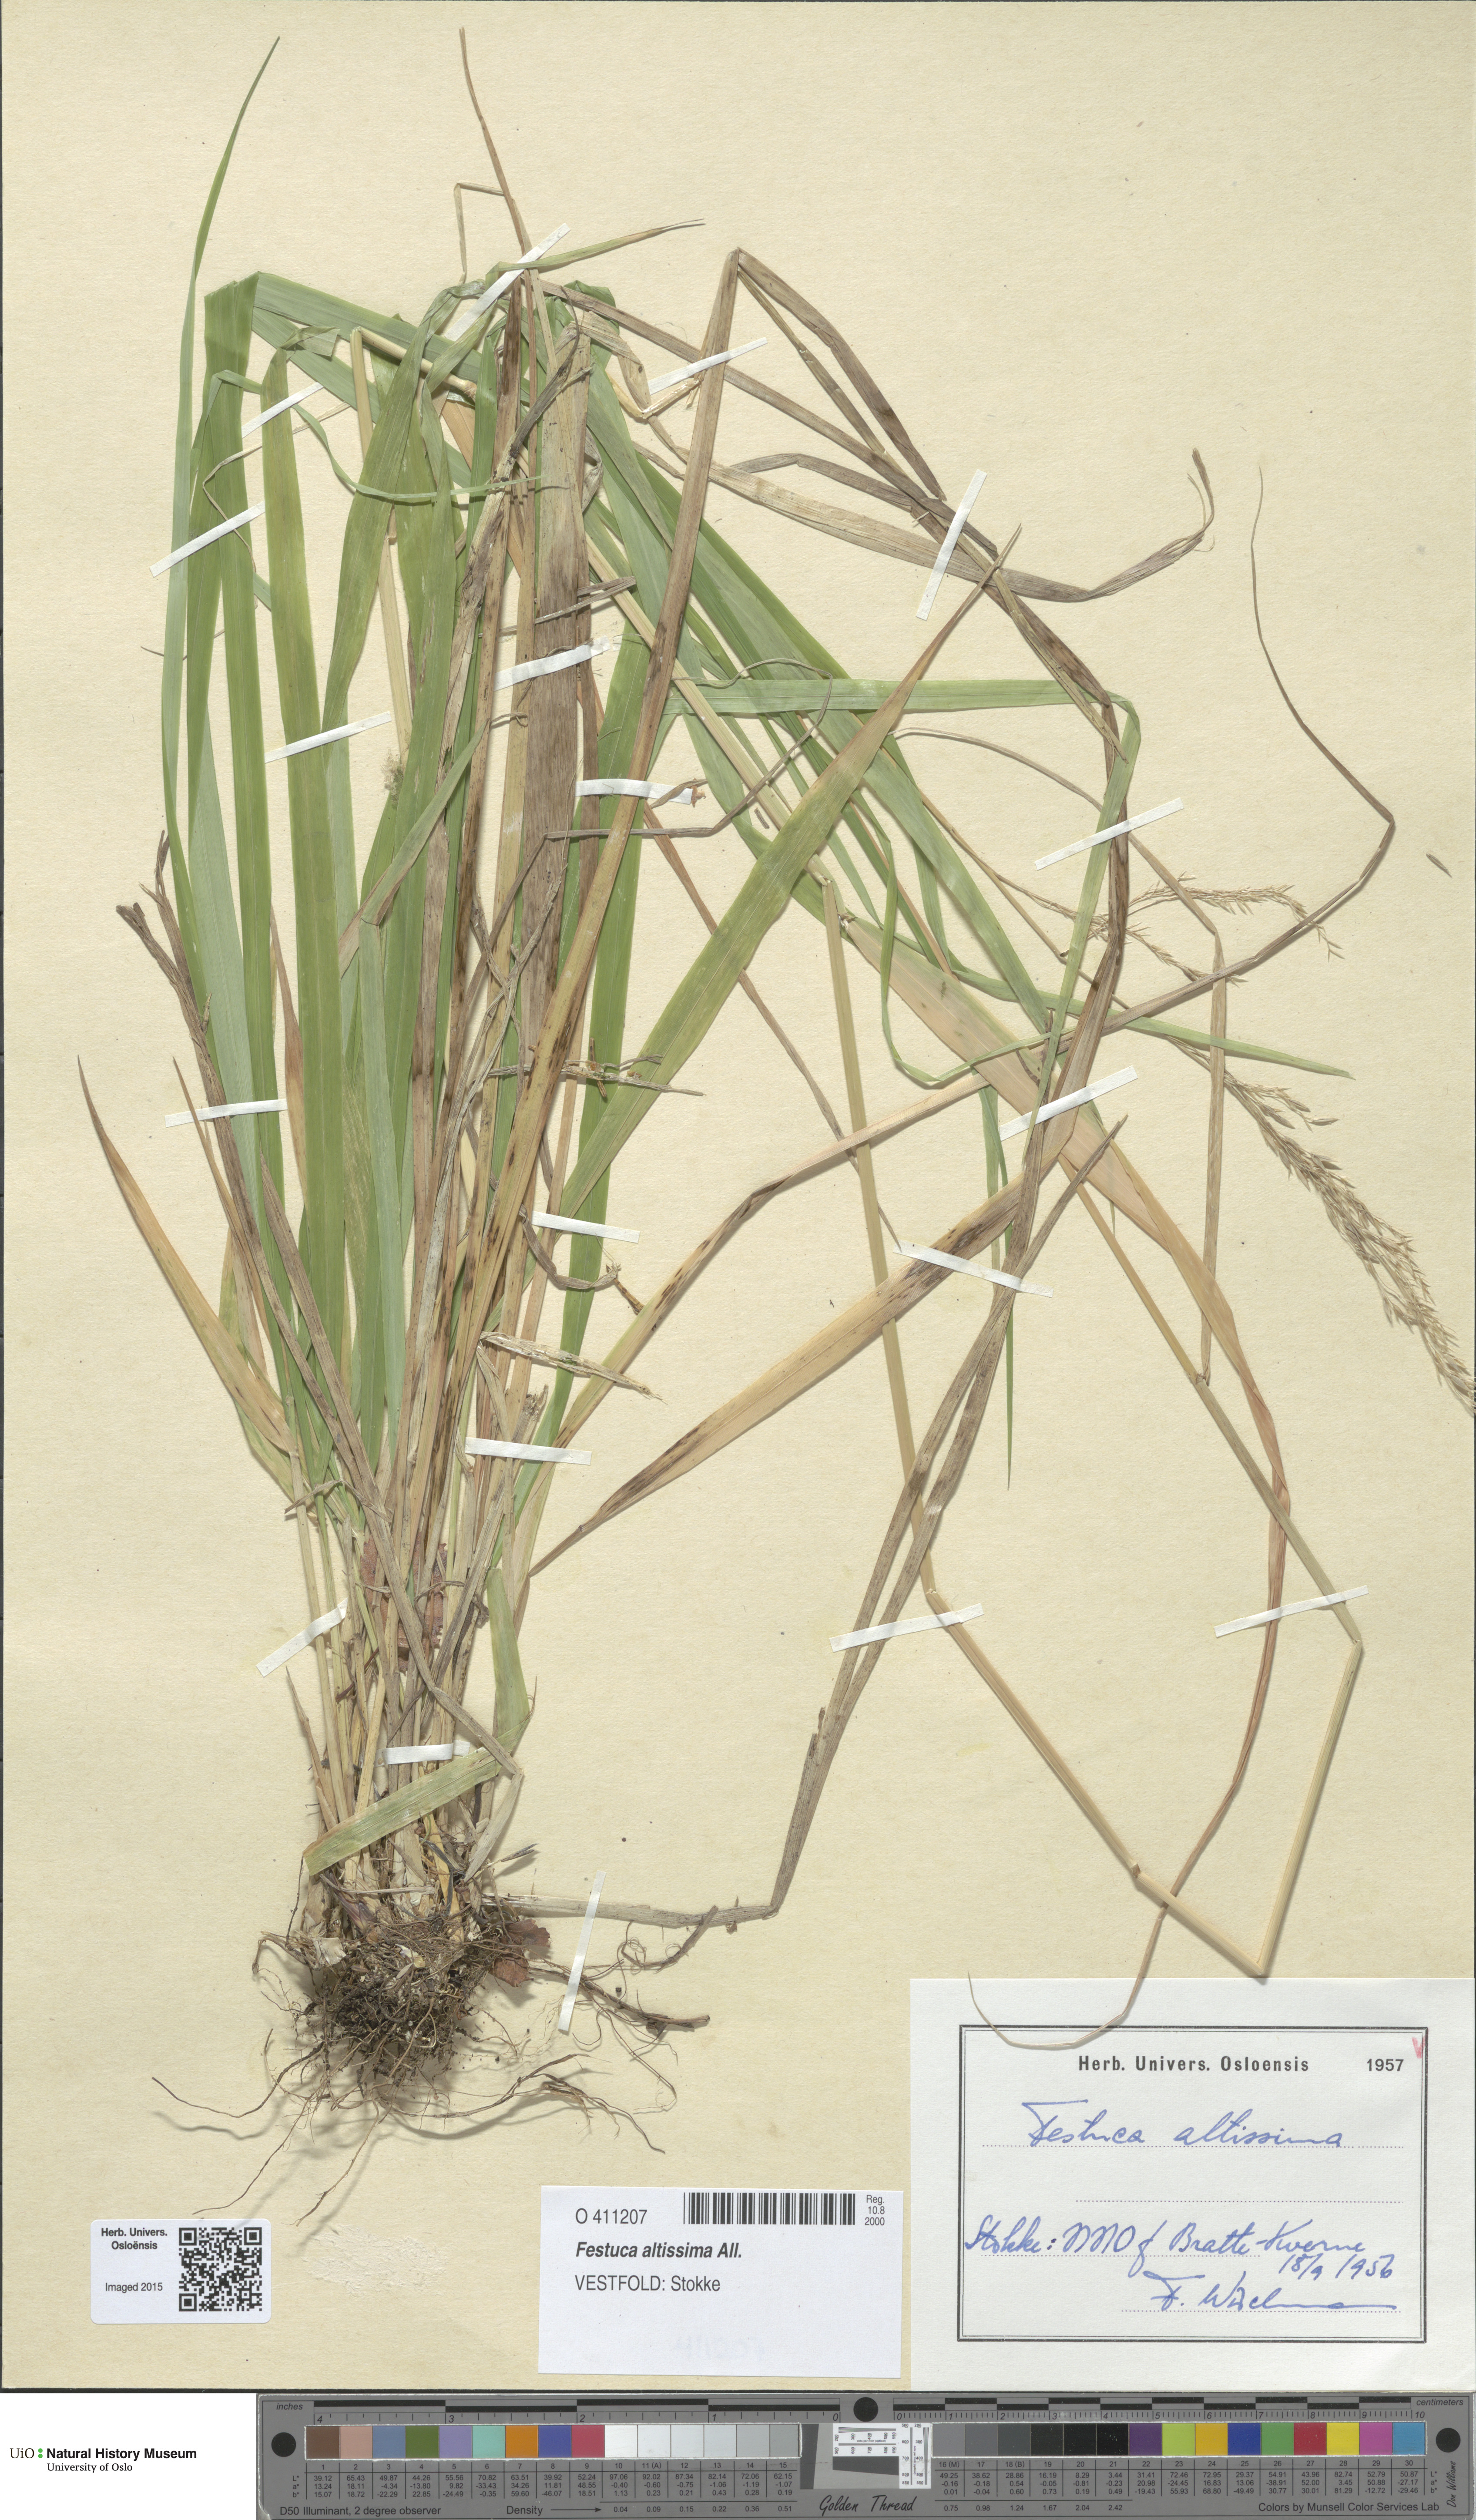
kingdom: Plantae
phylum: Tracheophyta
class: Liliopsida
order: Poales
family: Poaceae
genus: Festuca
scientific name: Festuca altissima
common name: Wood fescue
